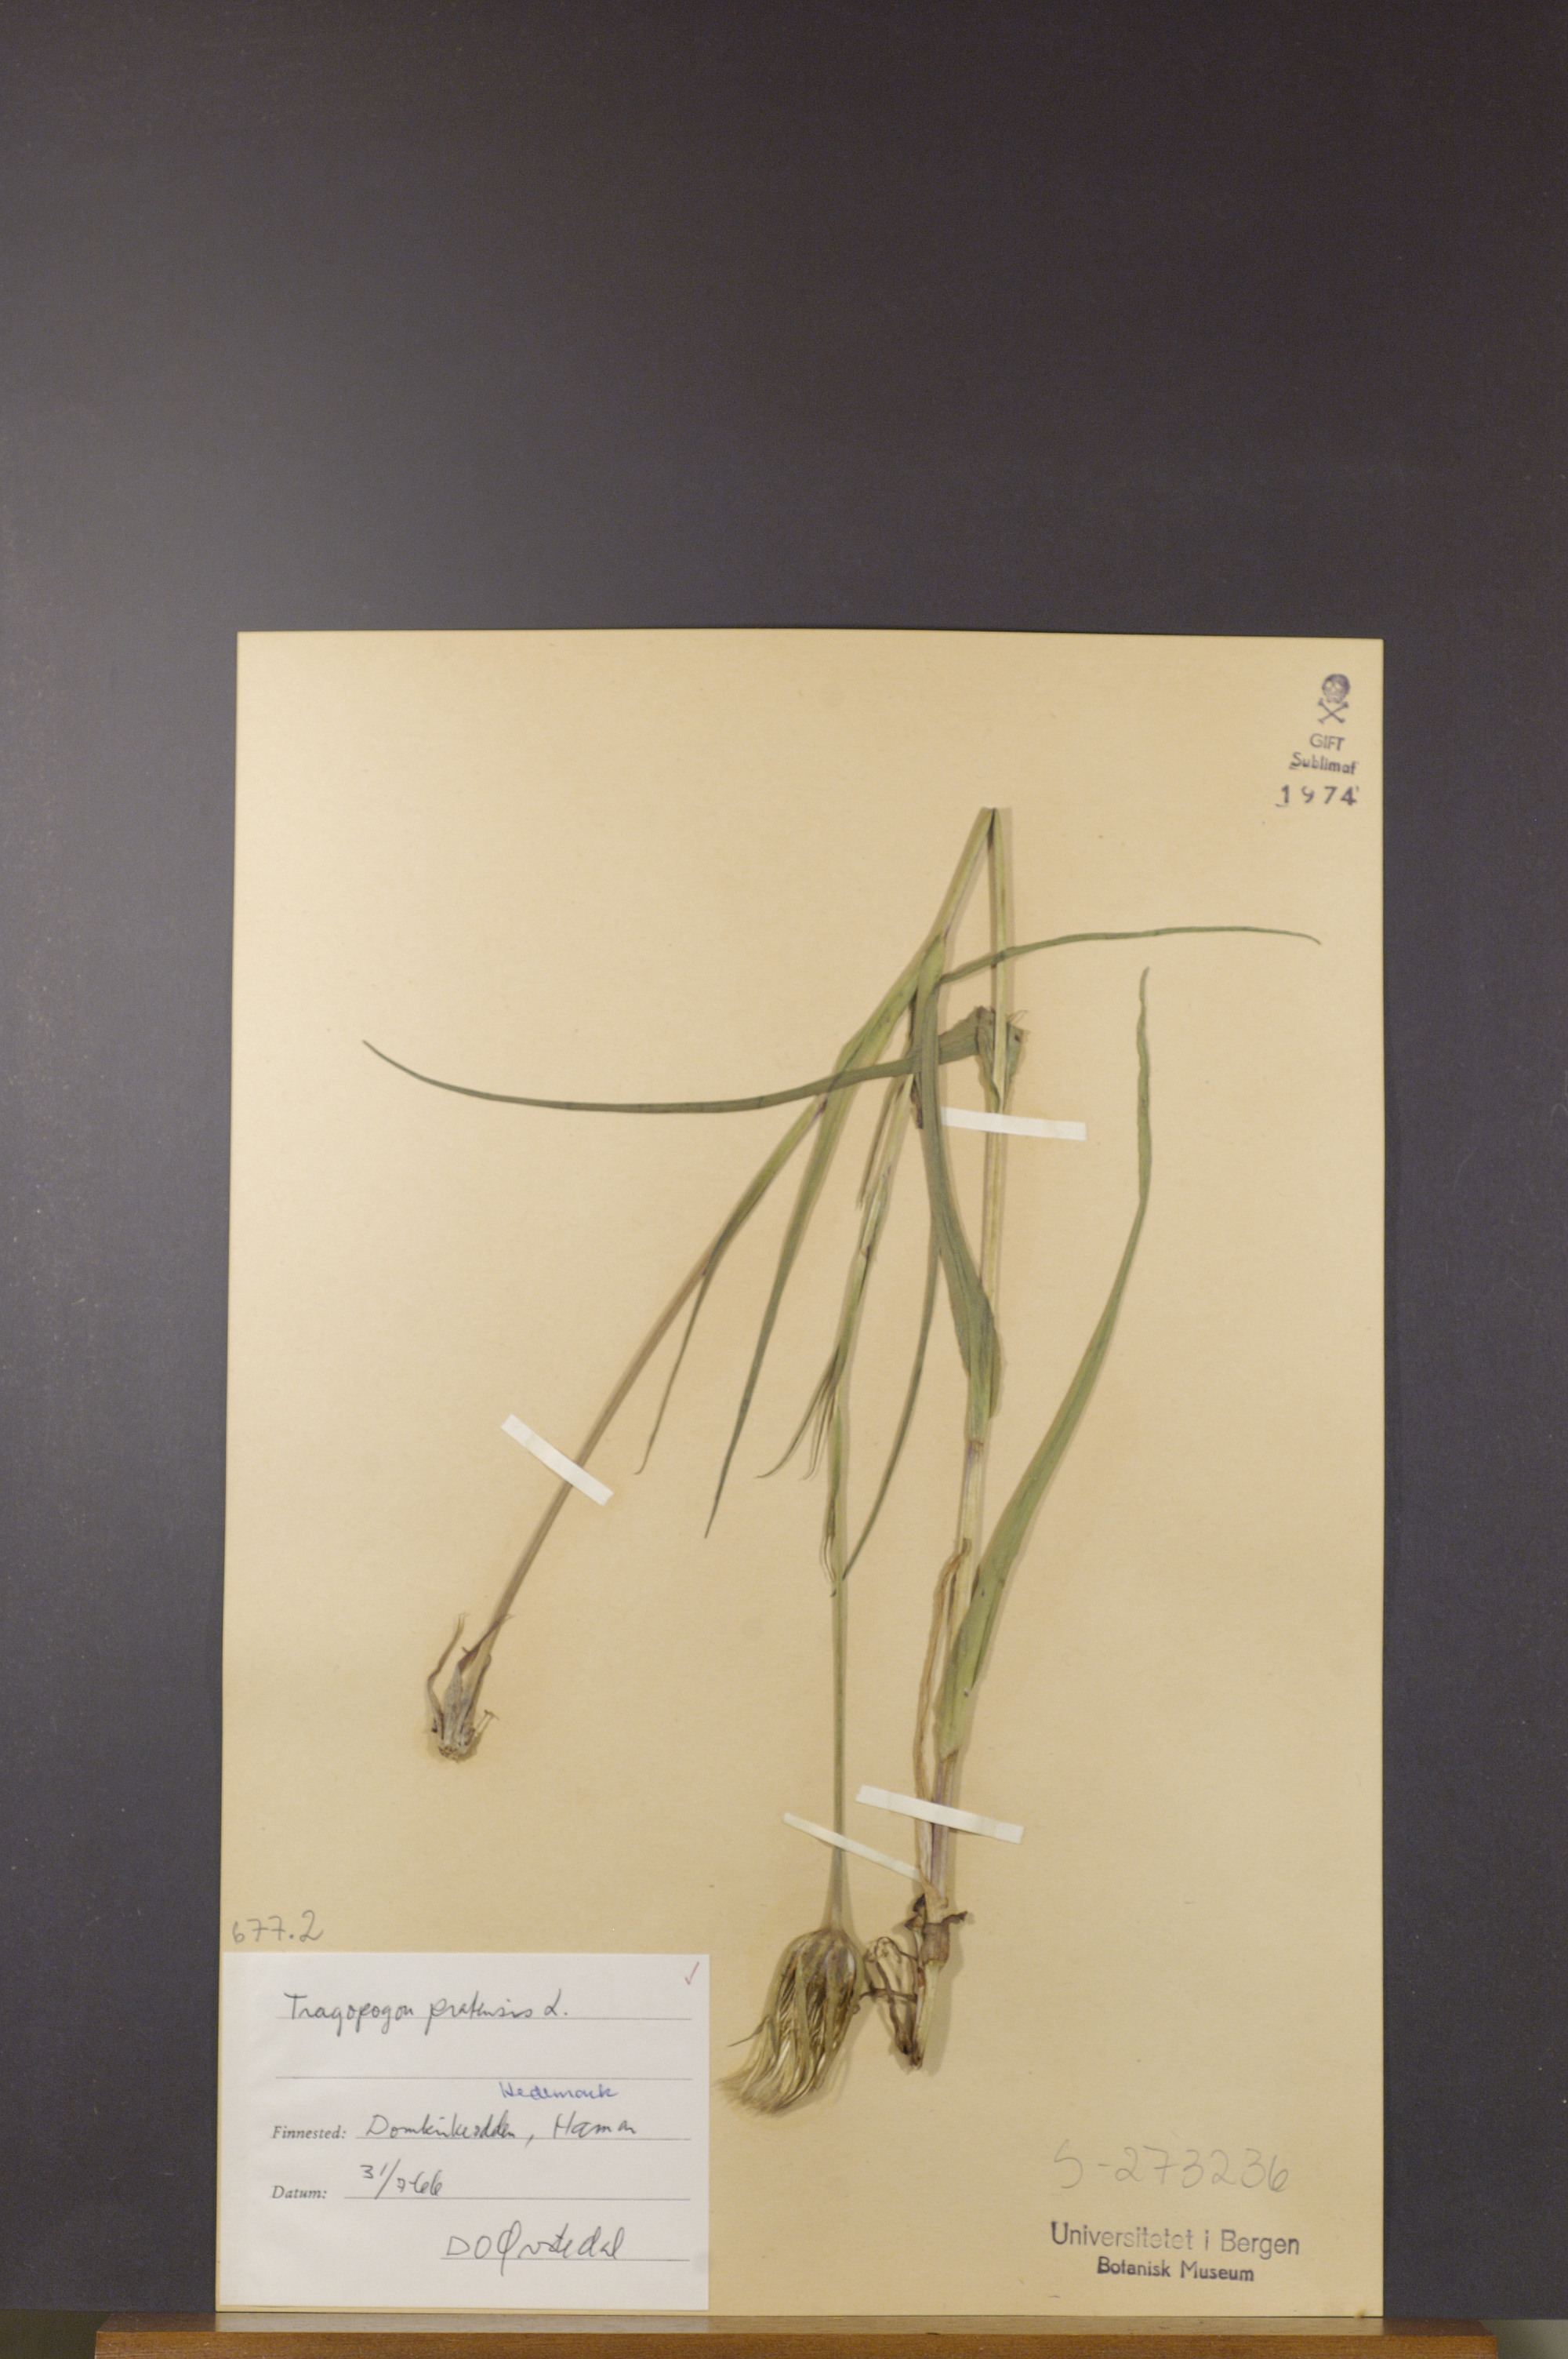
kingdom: Plantae
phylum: Tracheophyta
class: Magnoliopsida
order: Asterales
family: Asteraceae
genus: Tragopogon
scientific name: Tragopogon pratensis
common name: Goat's-beard
